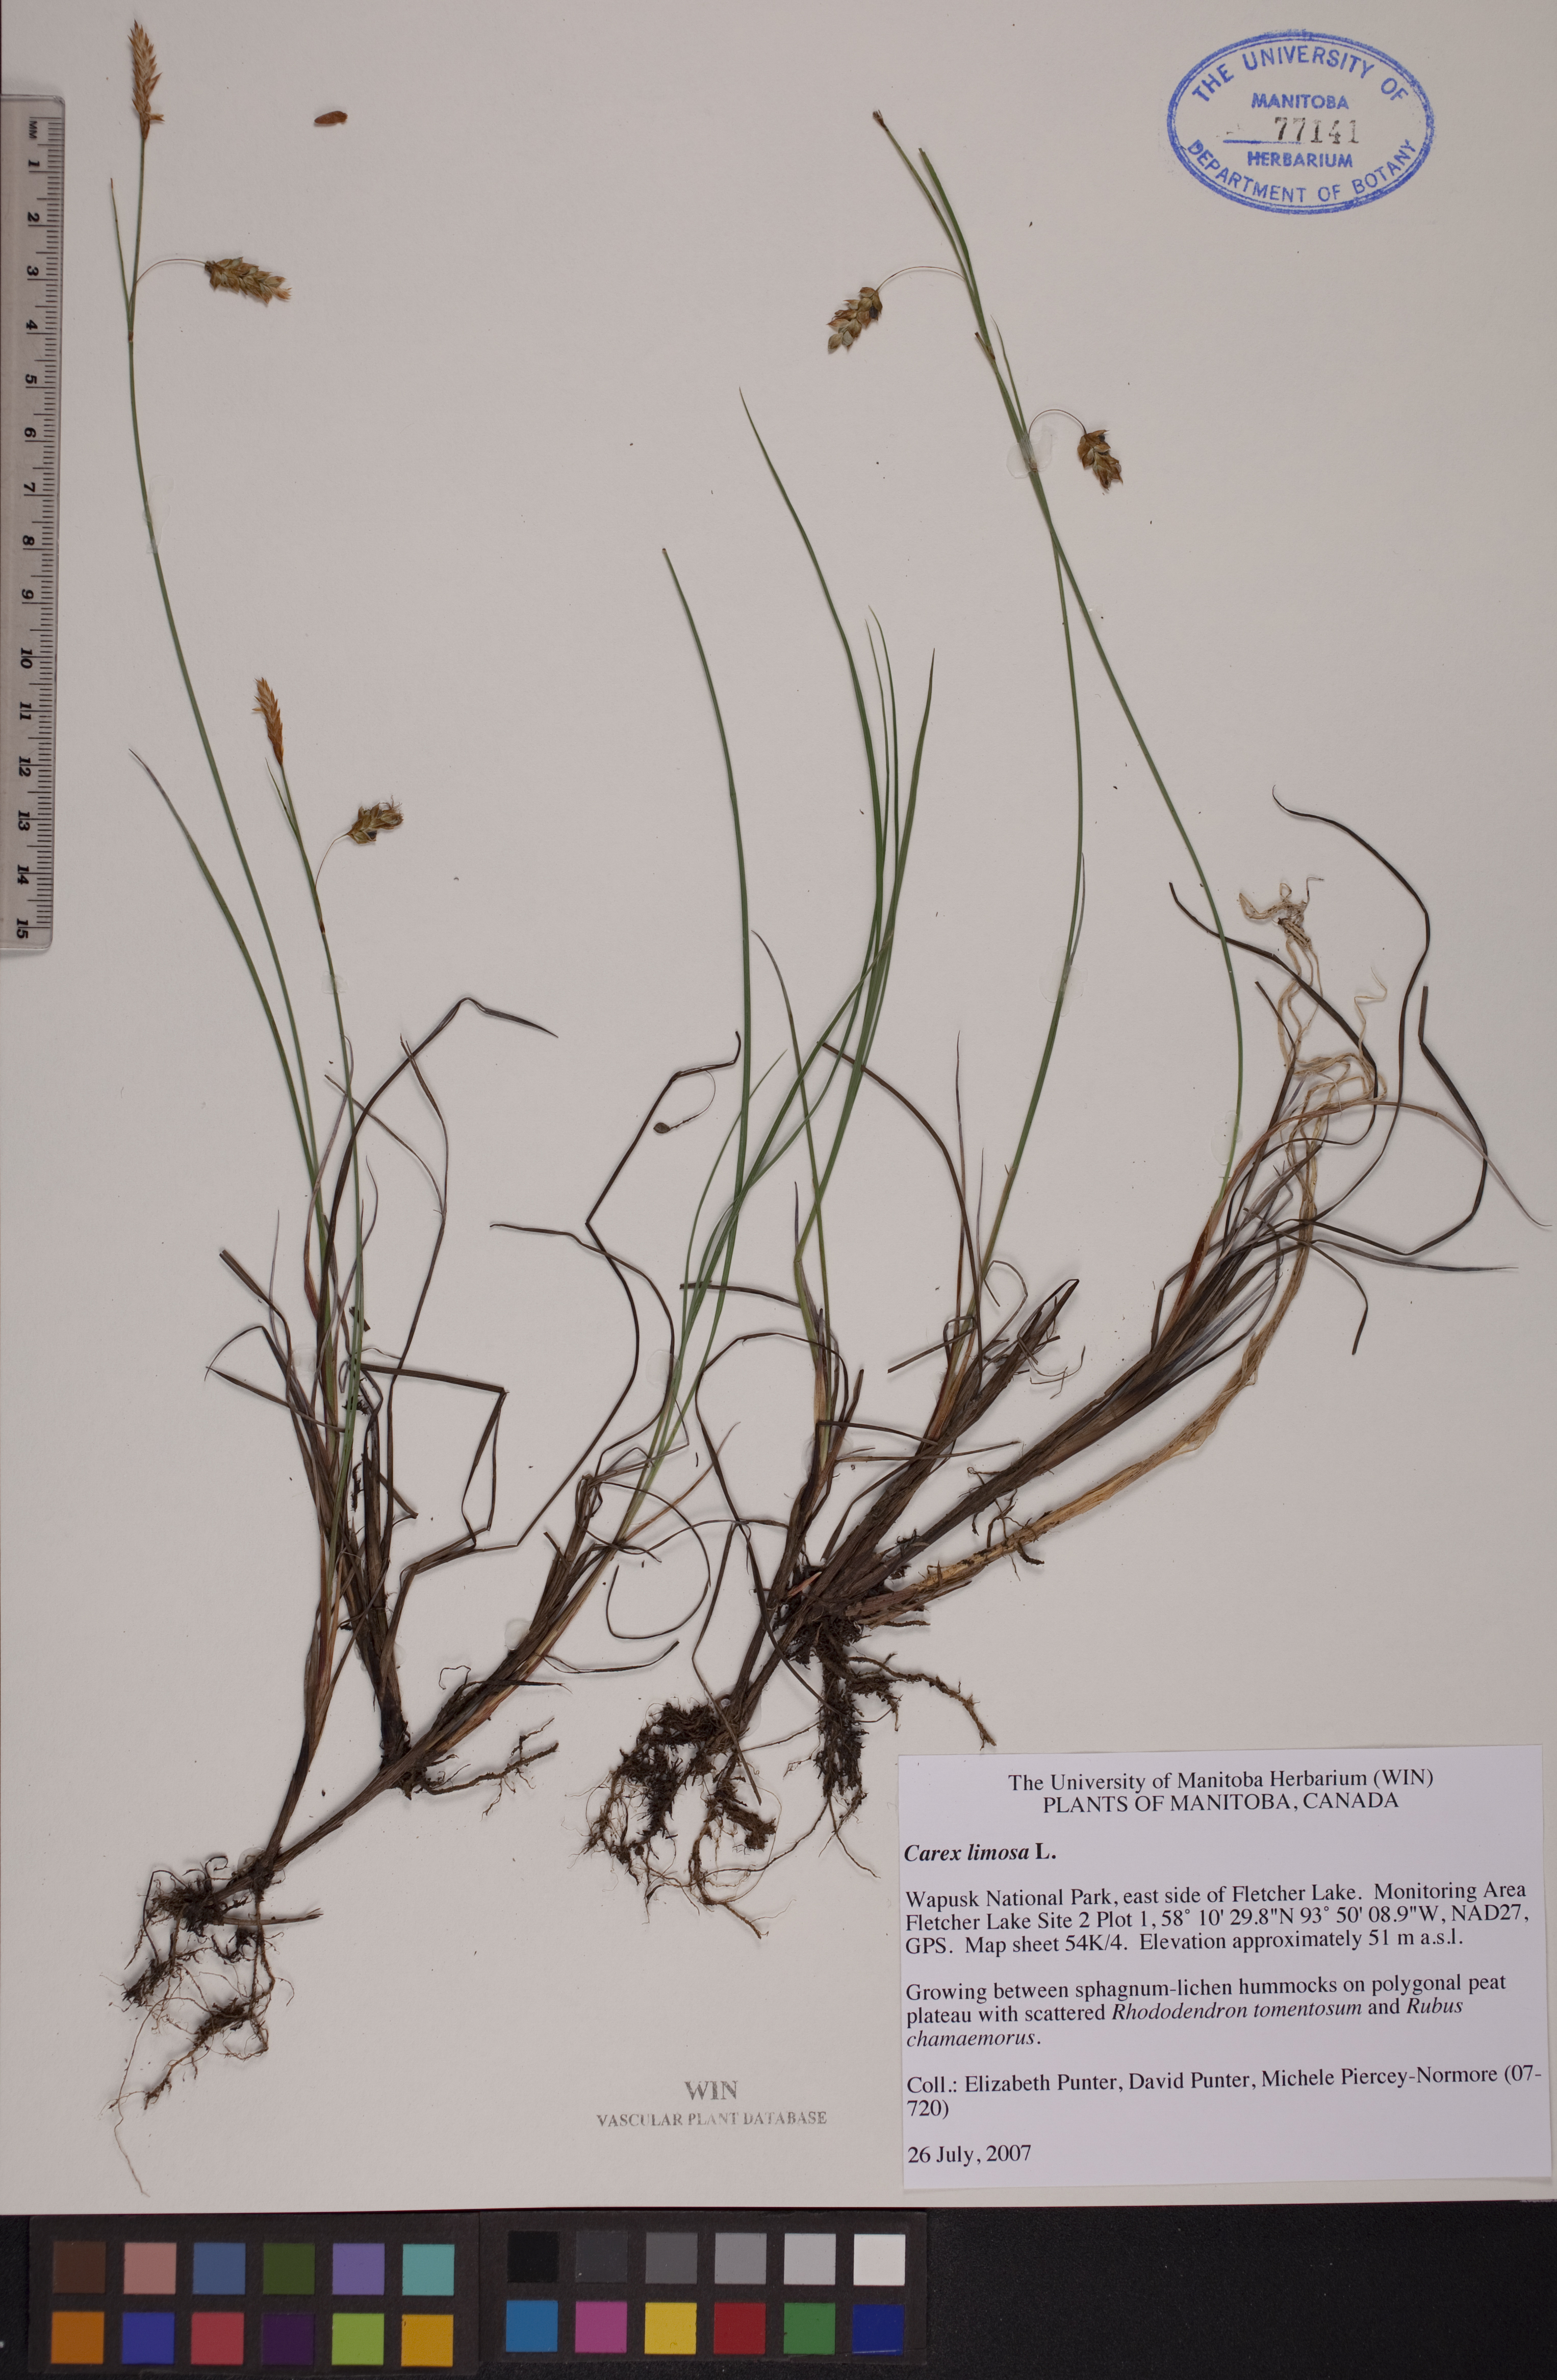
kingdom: Plantae
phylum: Tracheophyta
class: Liliopsida
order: Poales
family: Cyperaceae
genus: Carex
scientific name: Carex limosa
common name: Bog sedge
